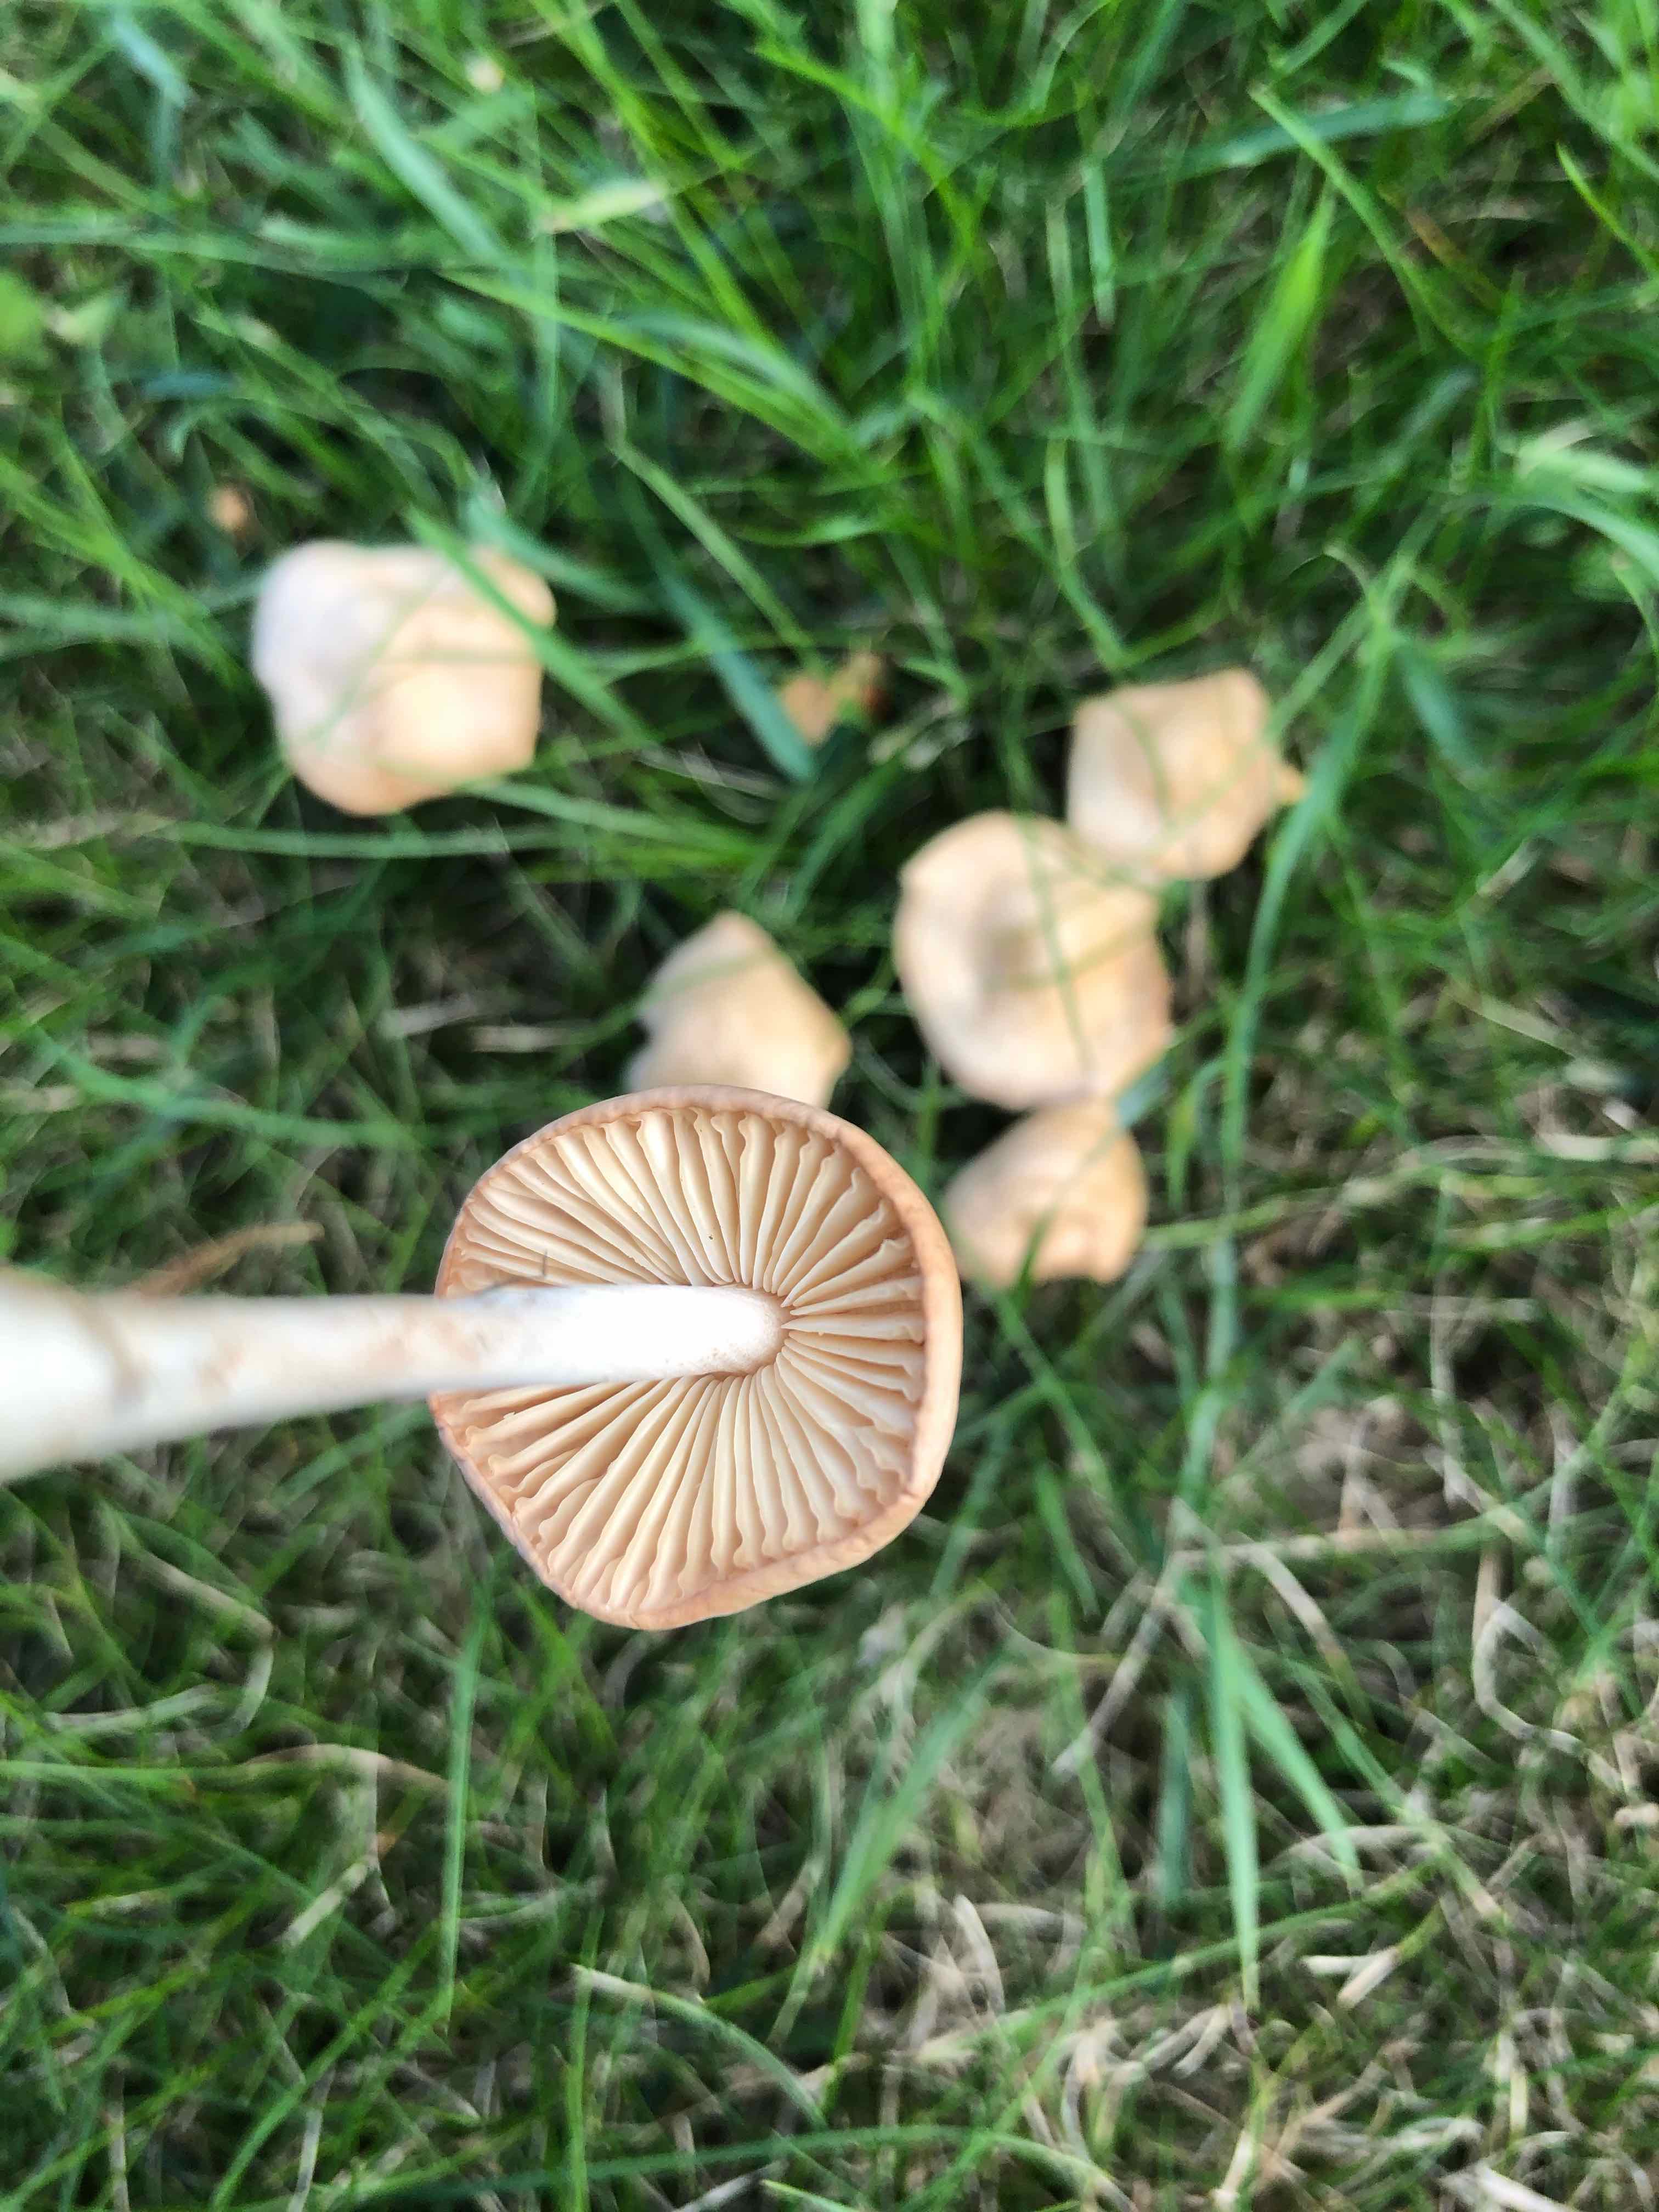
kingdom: Fungi
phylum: Basidiomycota
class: Agaricomycetes
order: Agaricales
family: Marasmiaceae
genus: Marasmius
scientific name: Marasmius oreades
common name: elledans-bruskhat
